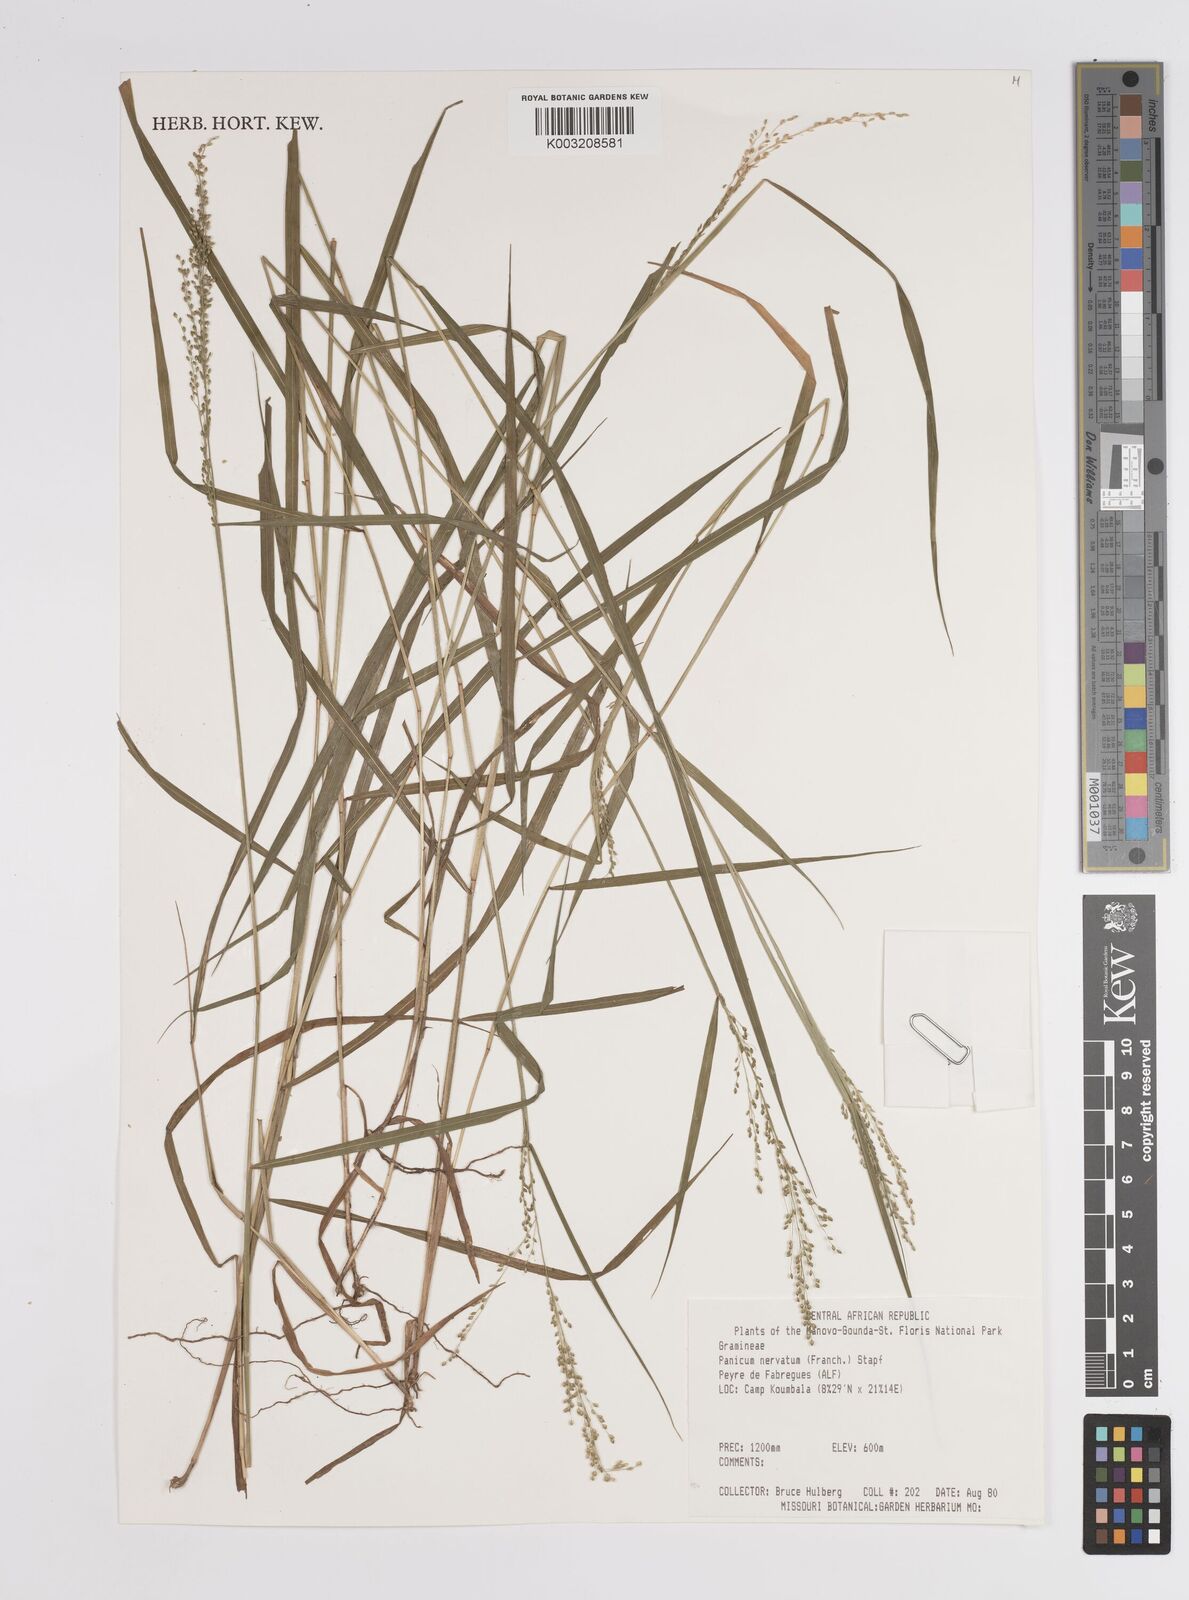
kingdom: Plantae
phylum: Tracheophyta
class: Liliopsida
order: Poales
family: Poaceae
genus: Trichanthecium
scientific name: Trichanthecium nervatum
